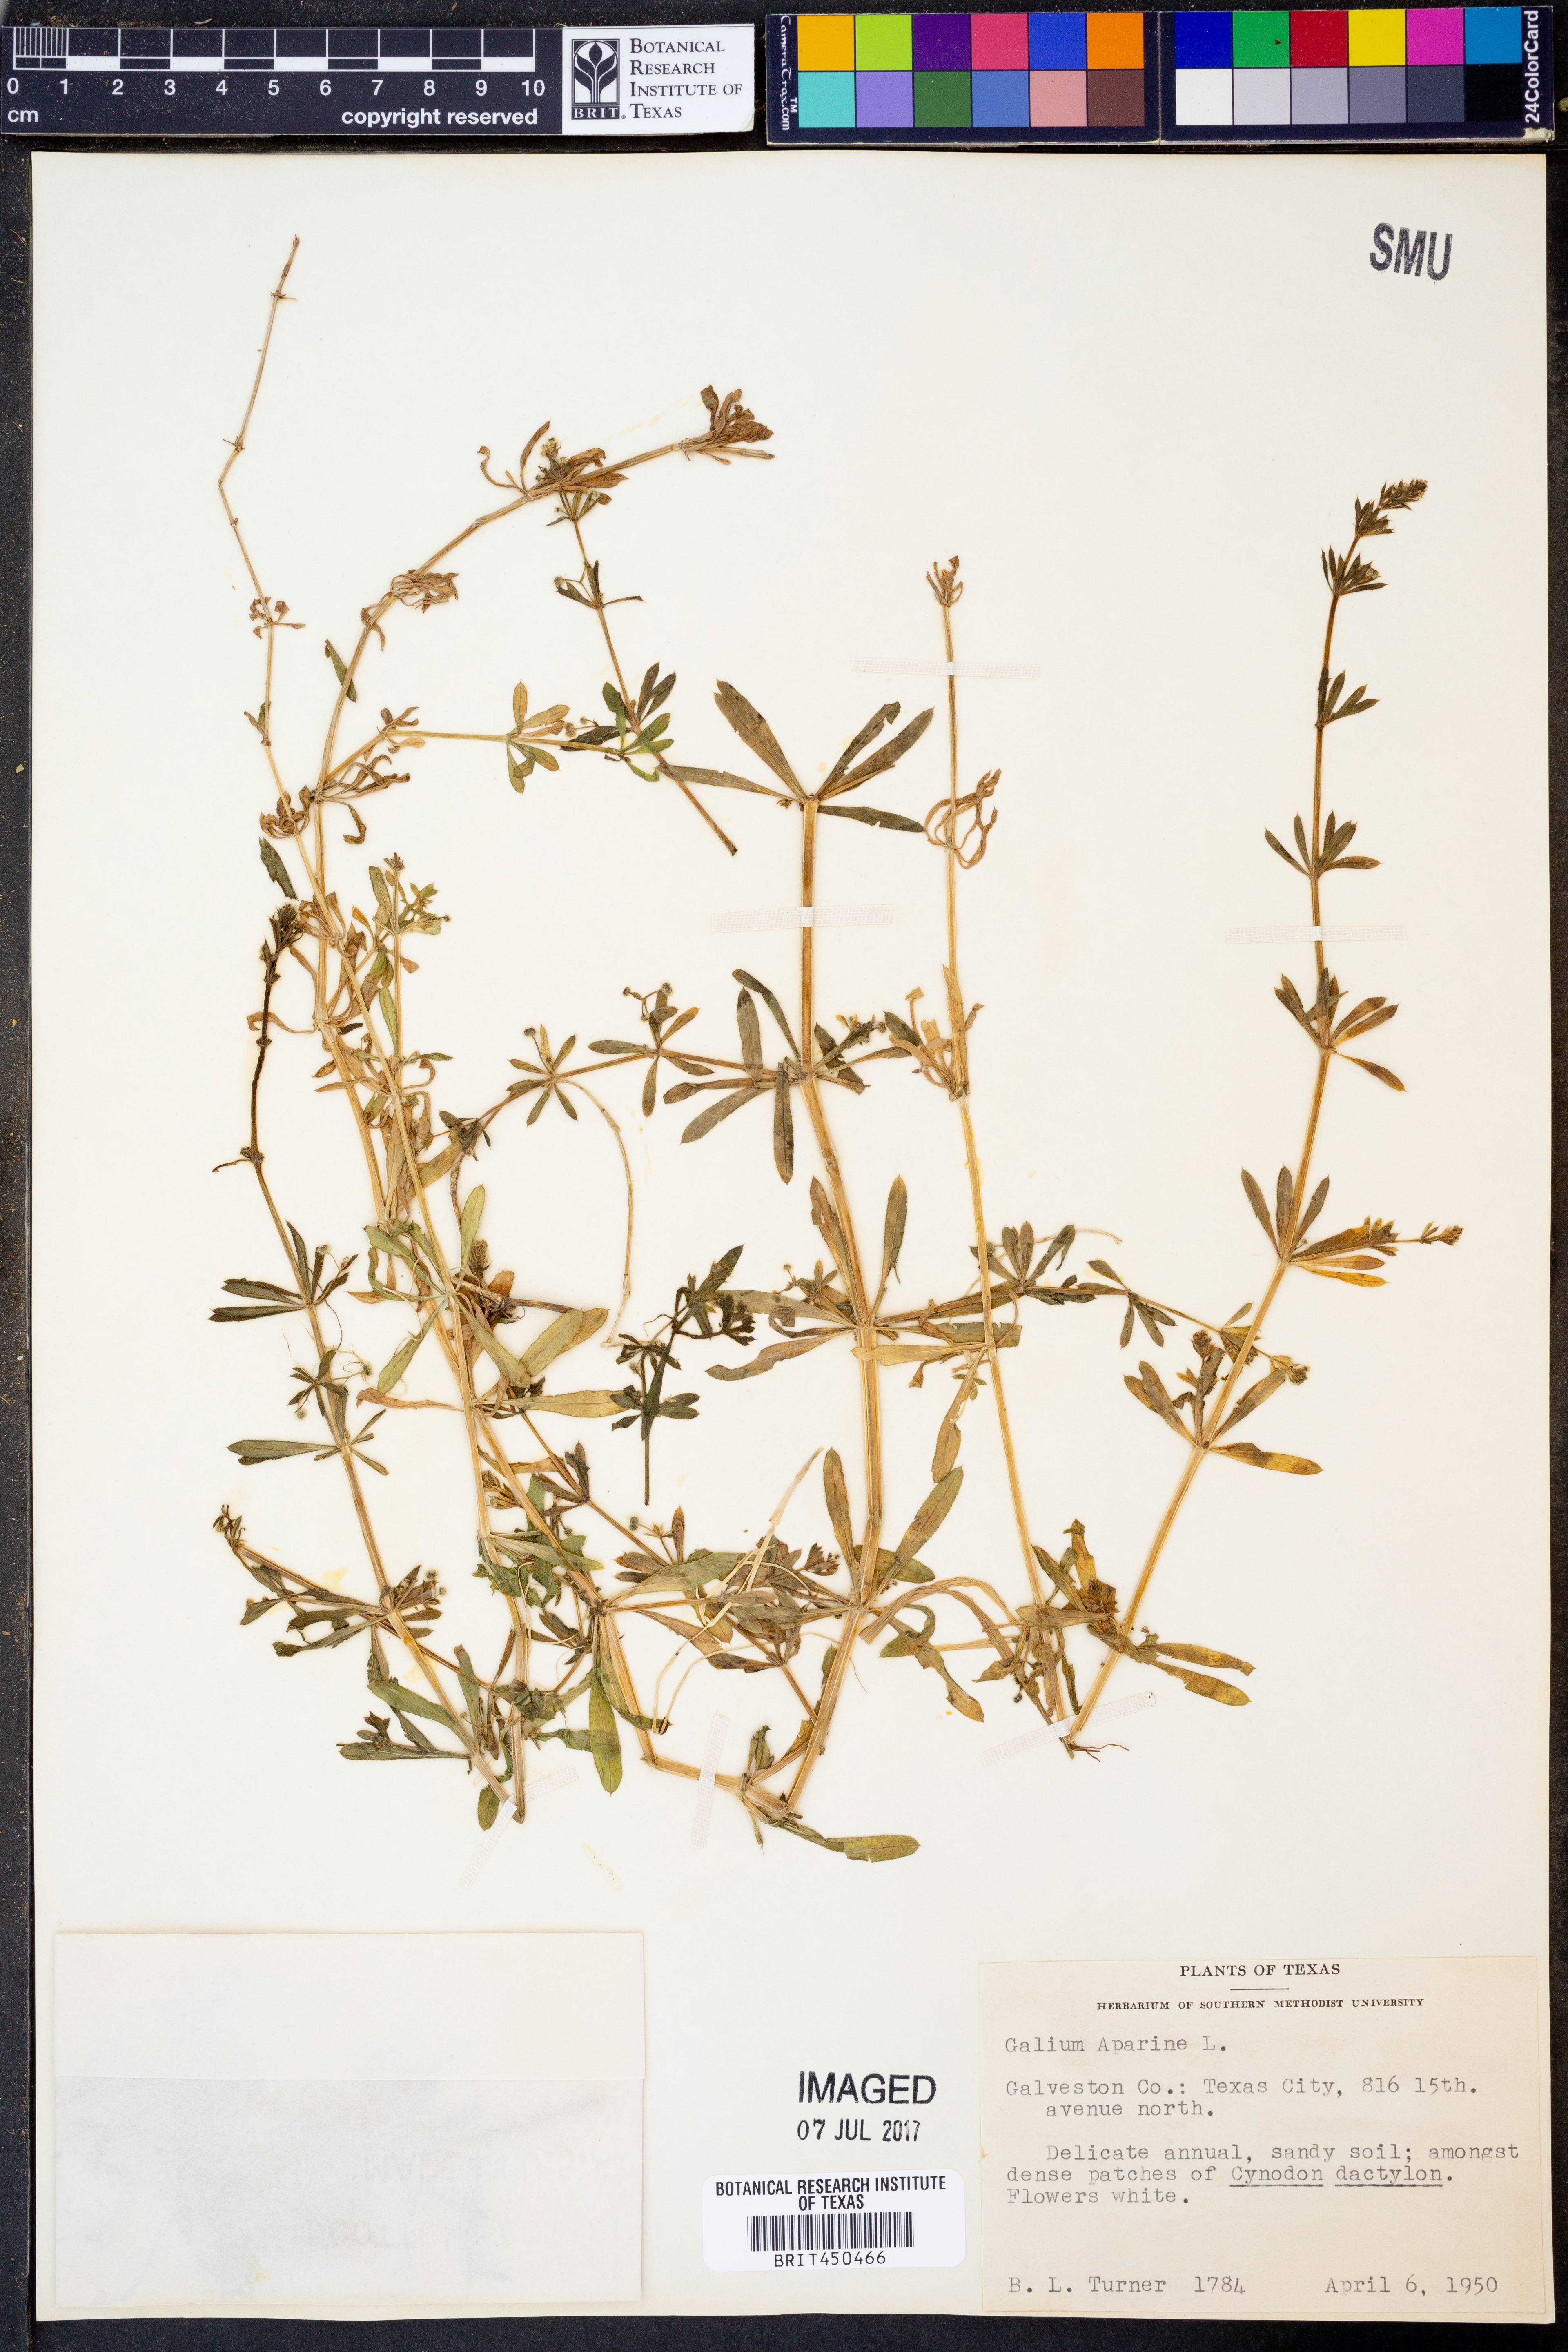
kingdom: Plantae
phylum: Tracheophyta
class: Magnoliopsida
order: Gentianales
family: Rubiaceae
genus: Galium
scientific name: Galium aparine
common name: Cleavers
